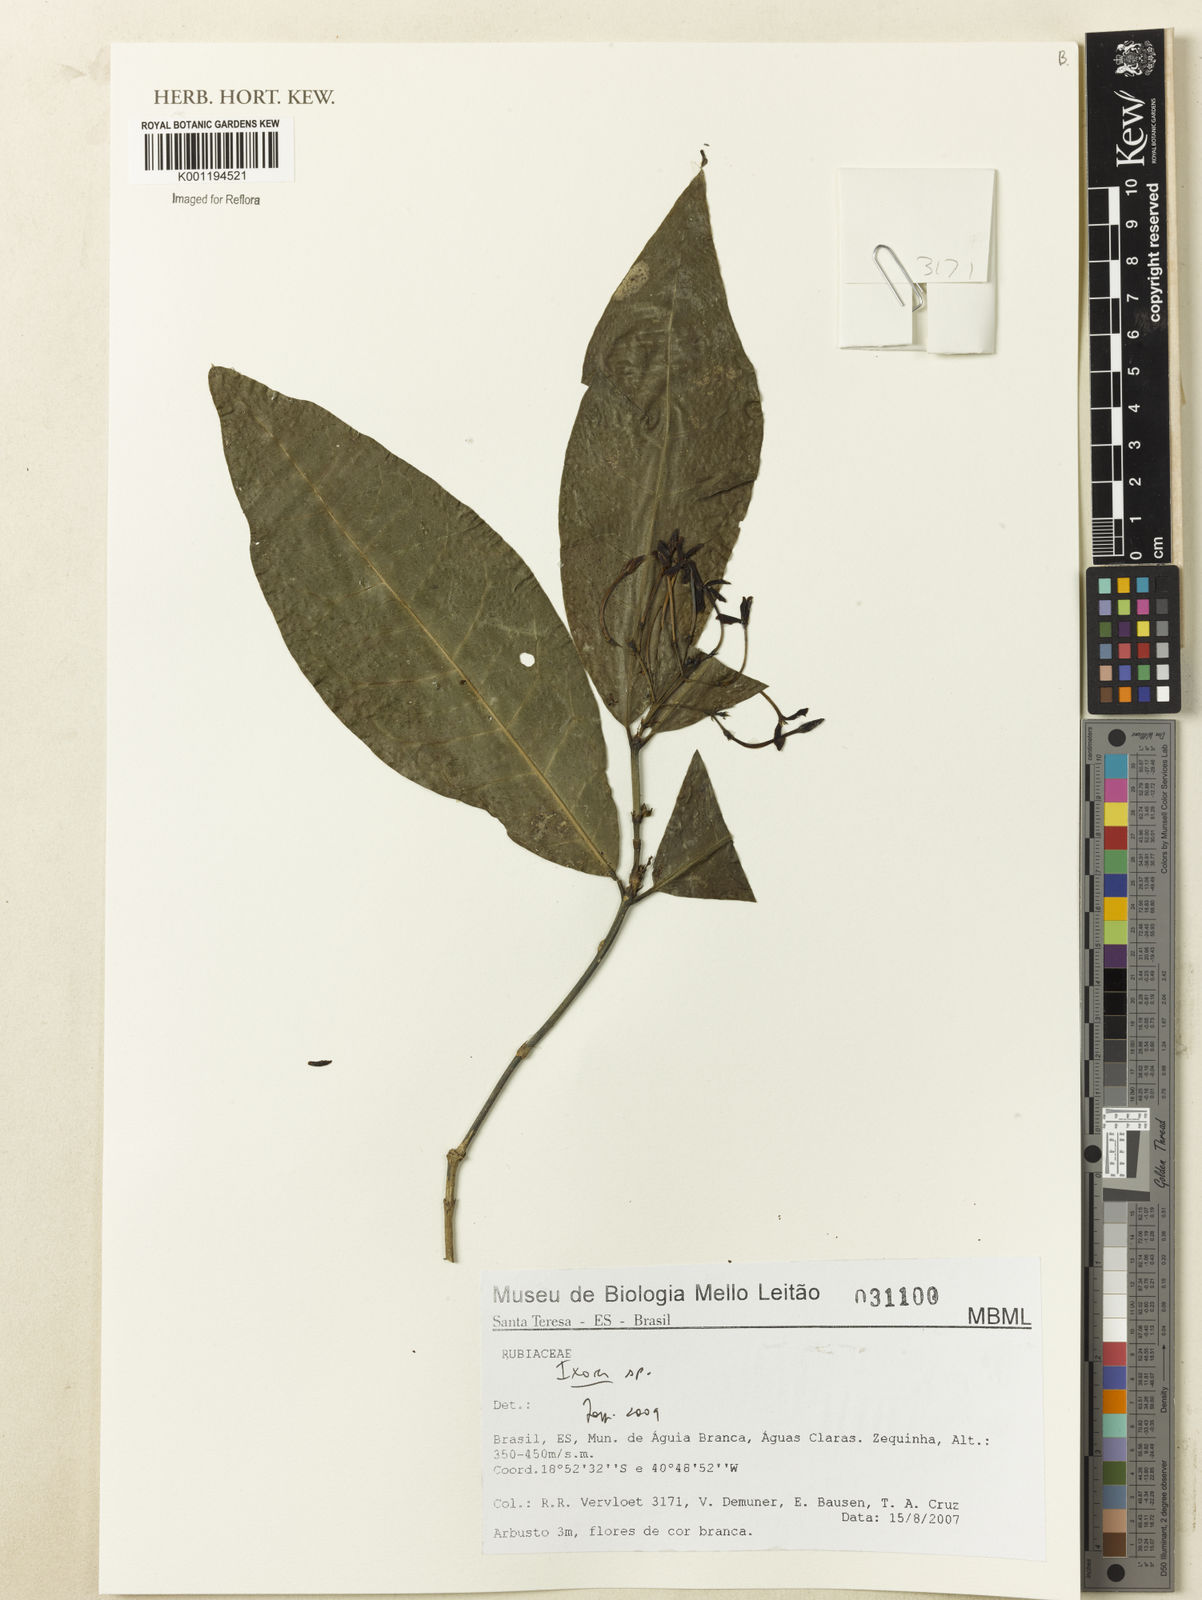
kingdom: Plantae
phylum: Tracheophyta
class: Magnoliopsida
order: Gentianales
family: Rubiaceae
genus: Ixora
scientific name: Ixora
